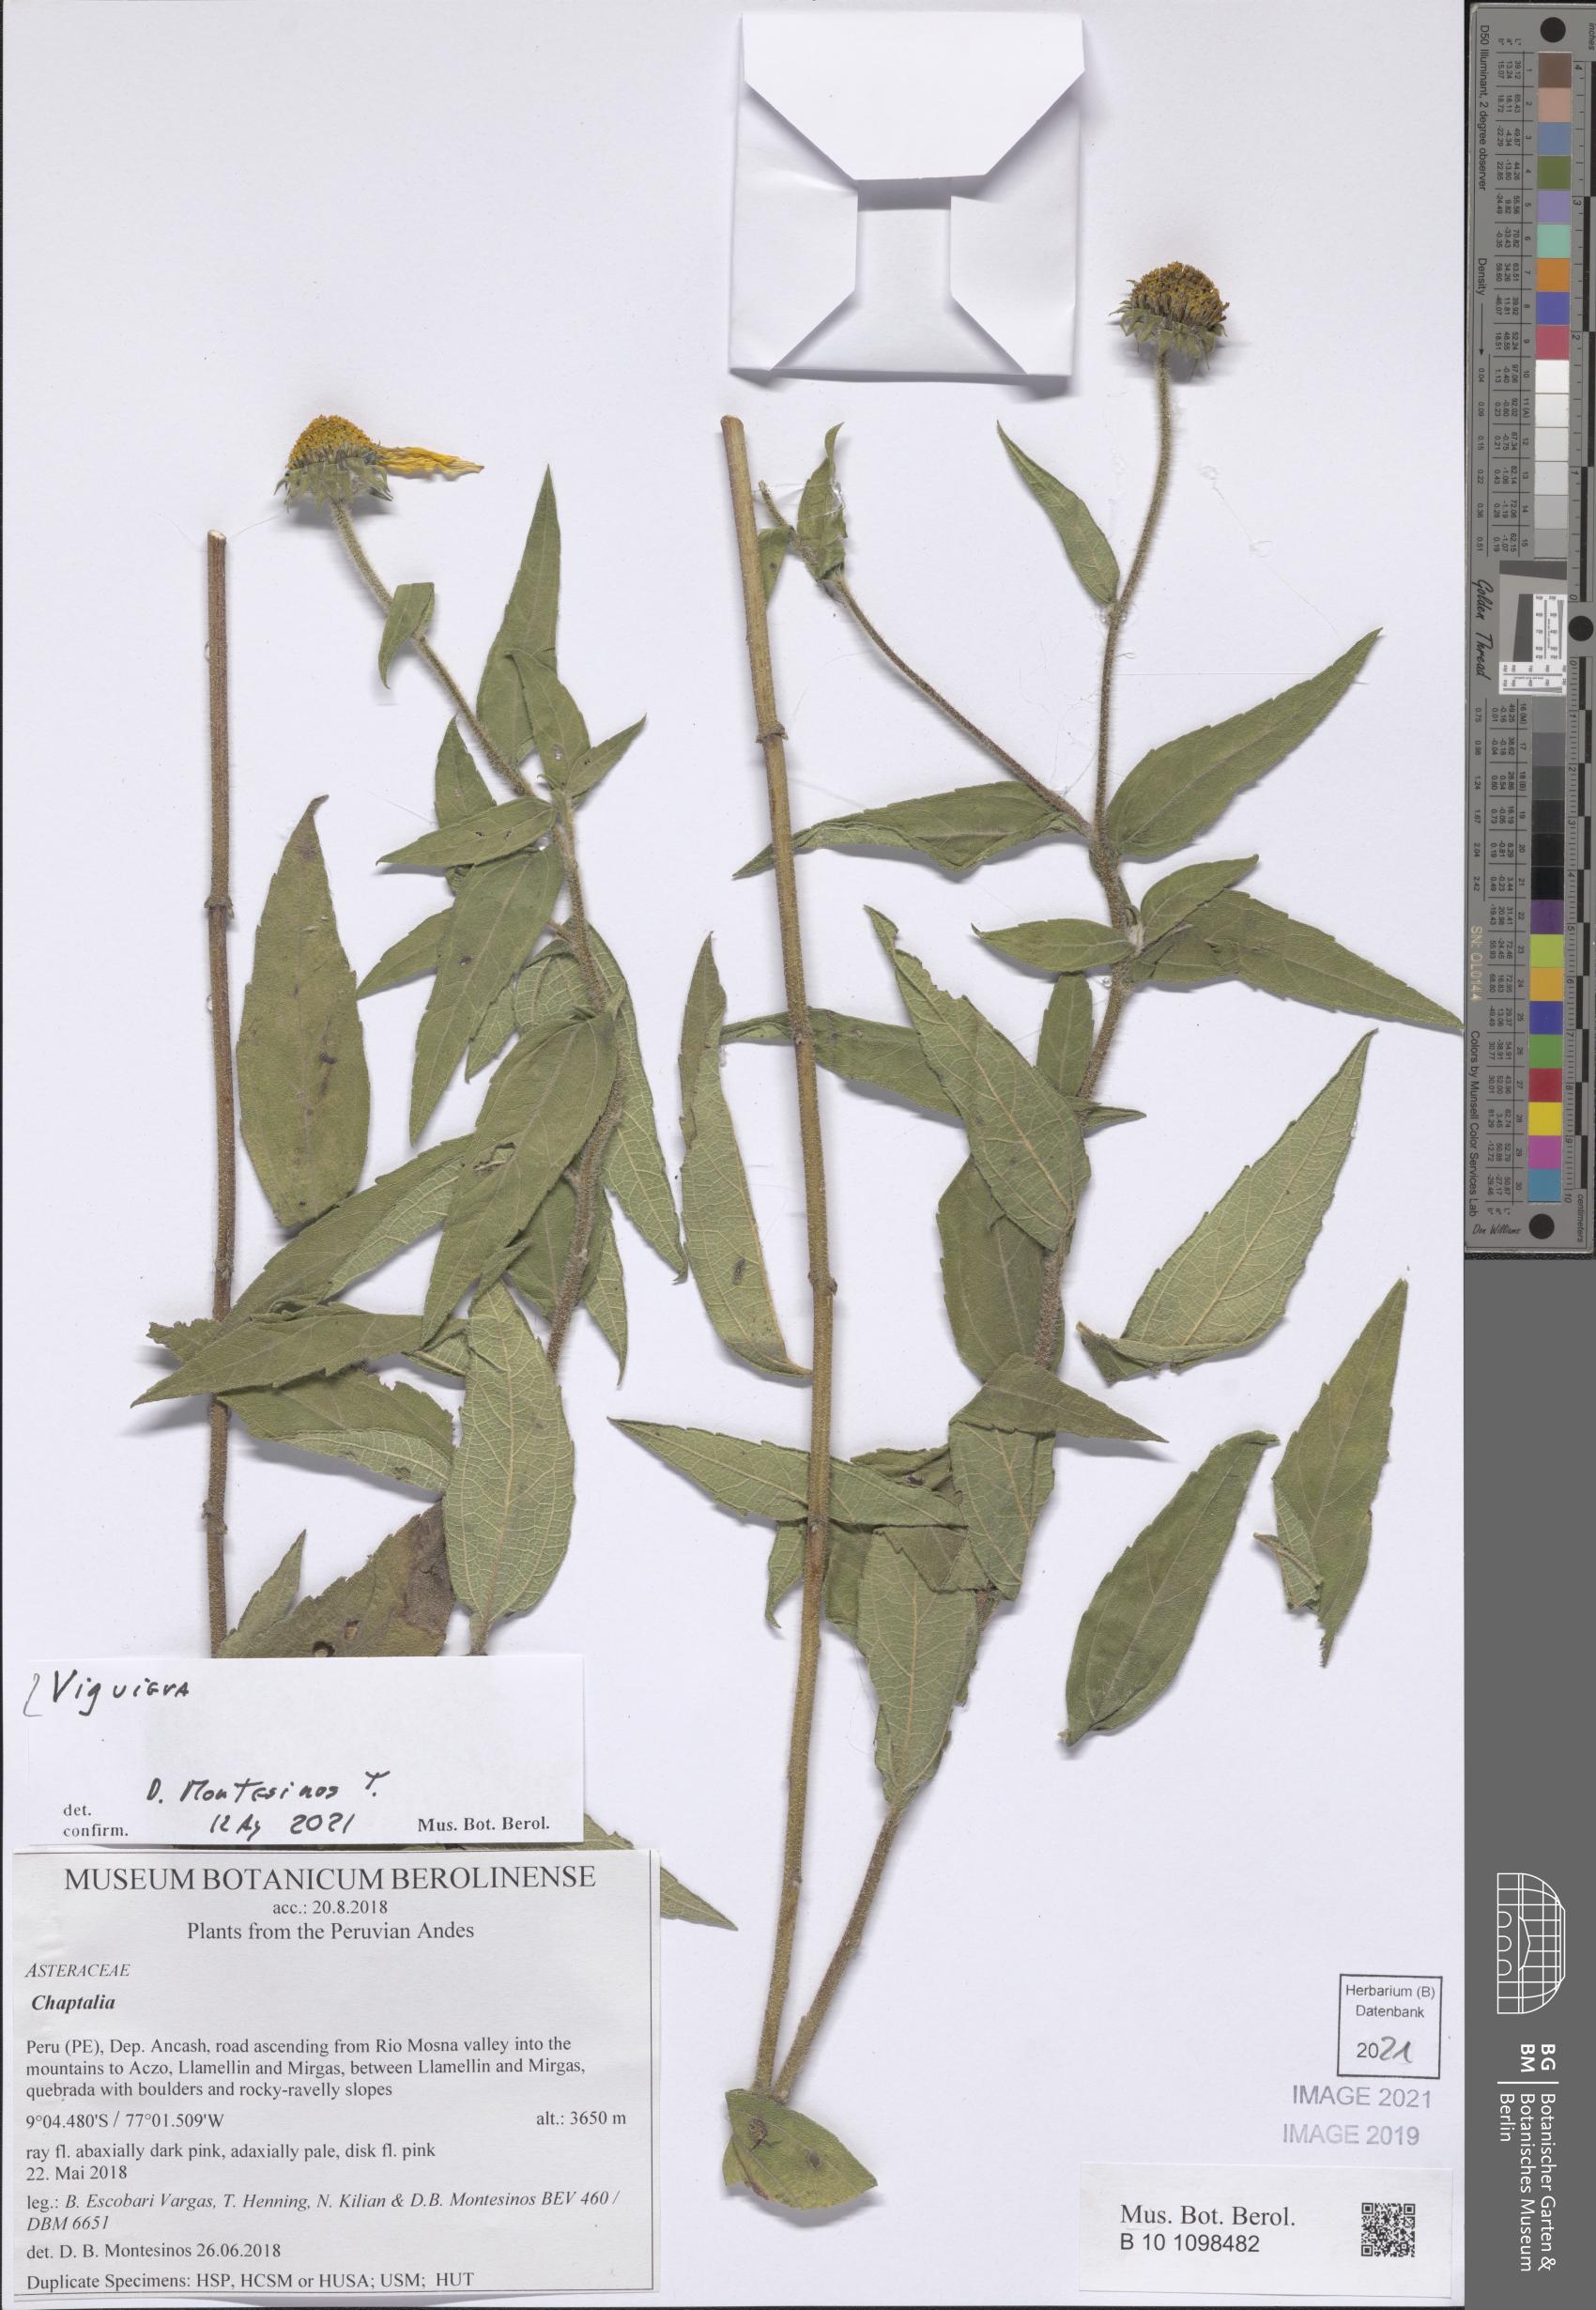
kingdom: Plantae
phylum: Tracheophyta
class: Magnoliopsida
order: Asterales
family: Asteraceae
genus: Viguiera
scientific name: Viguiera
